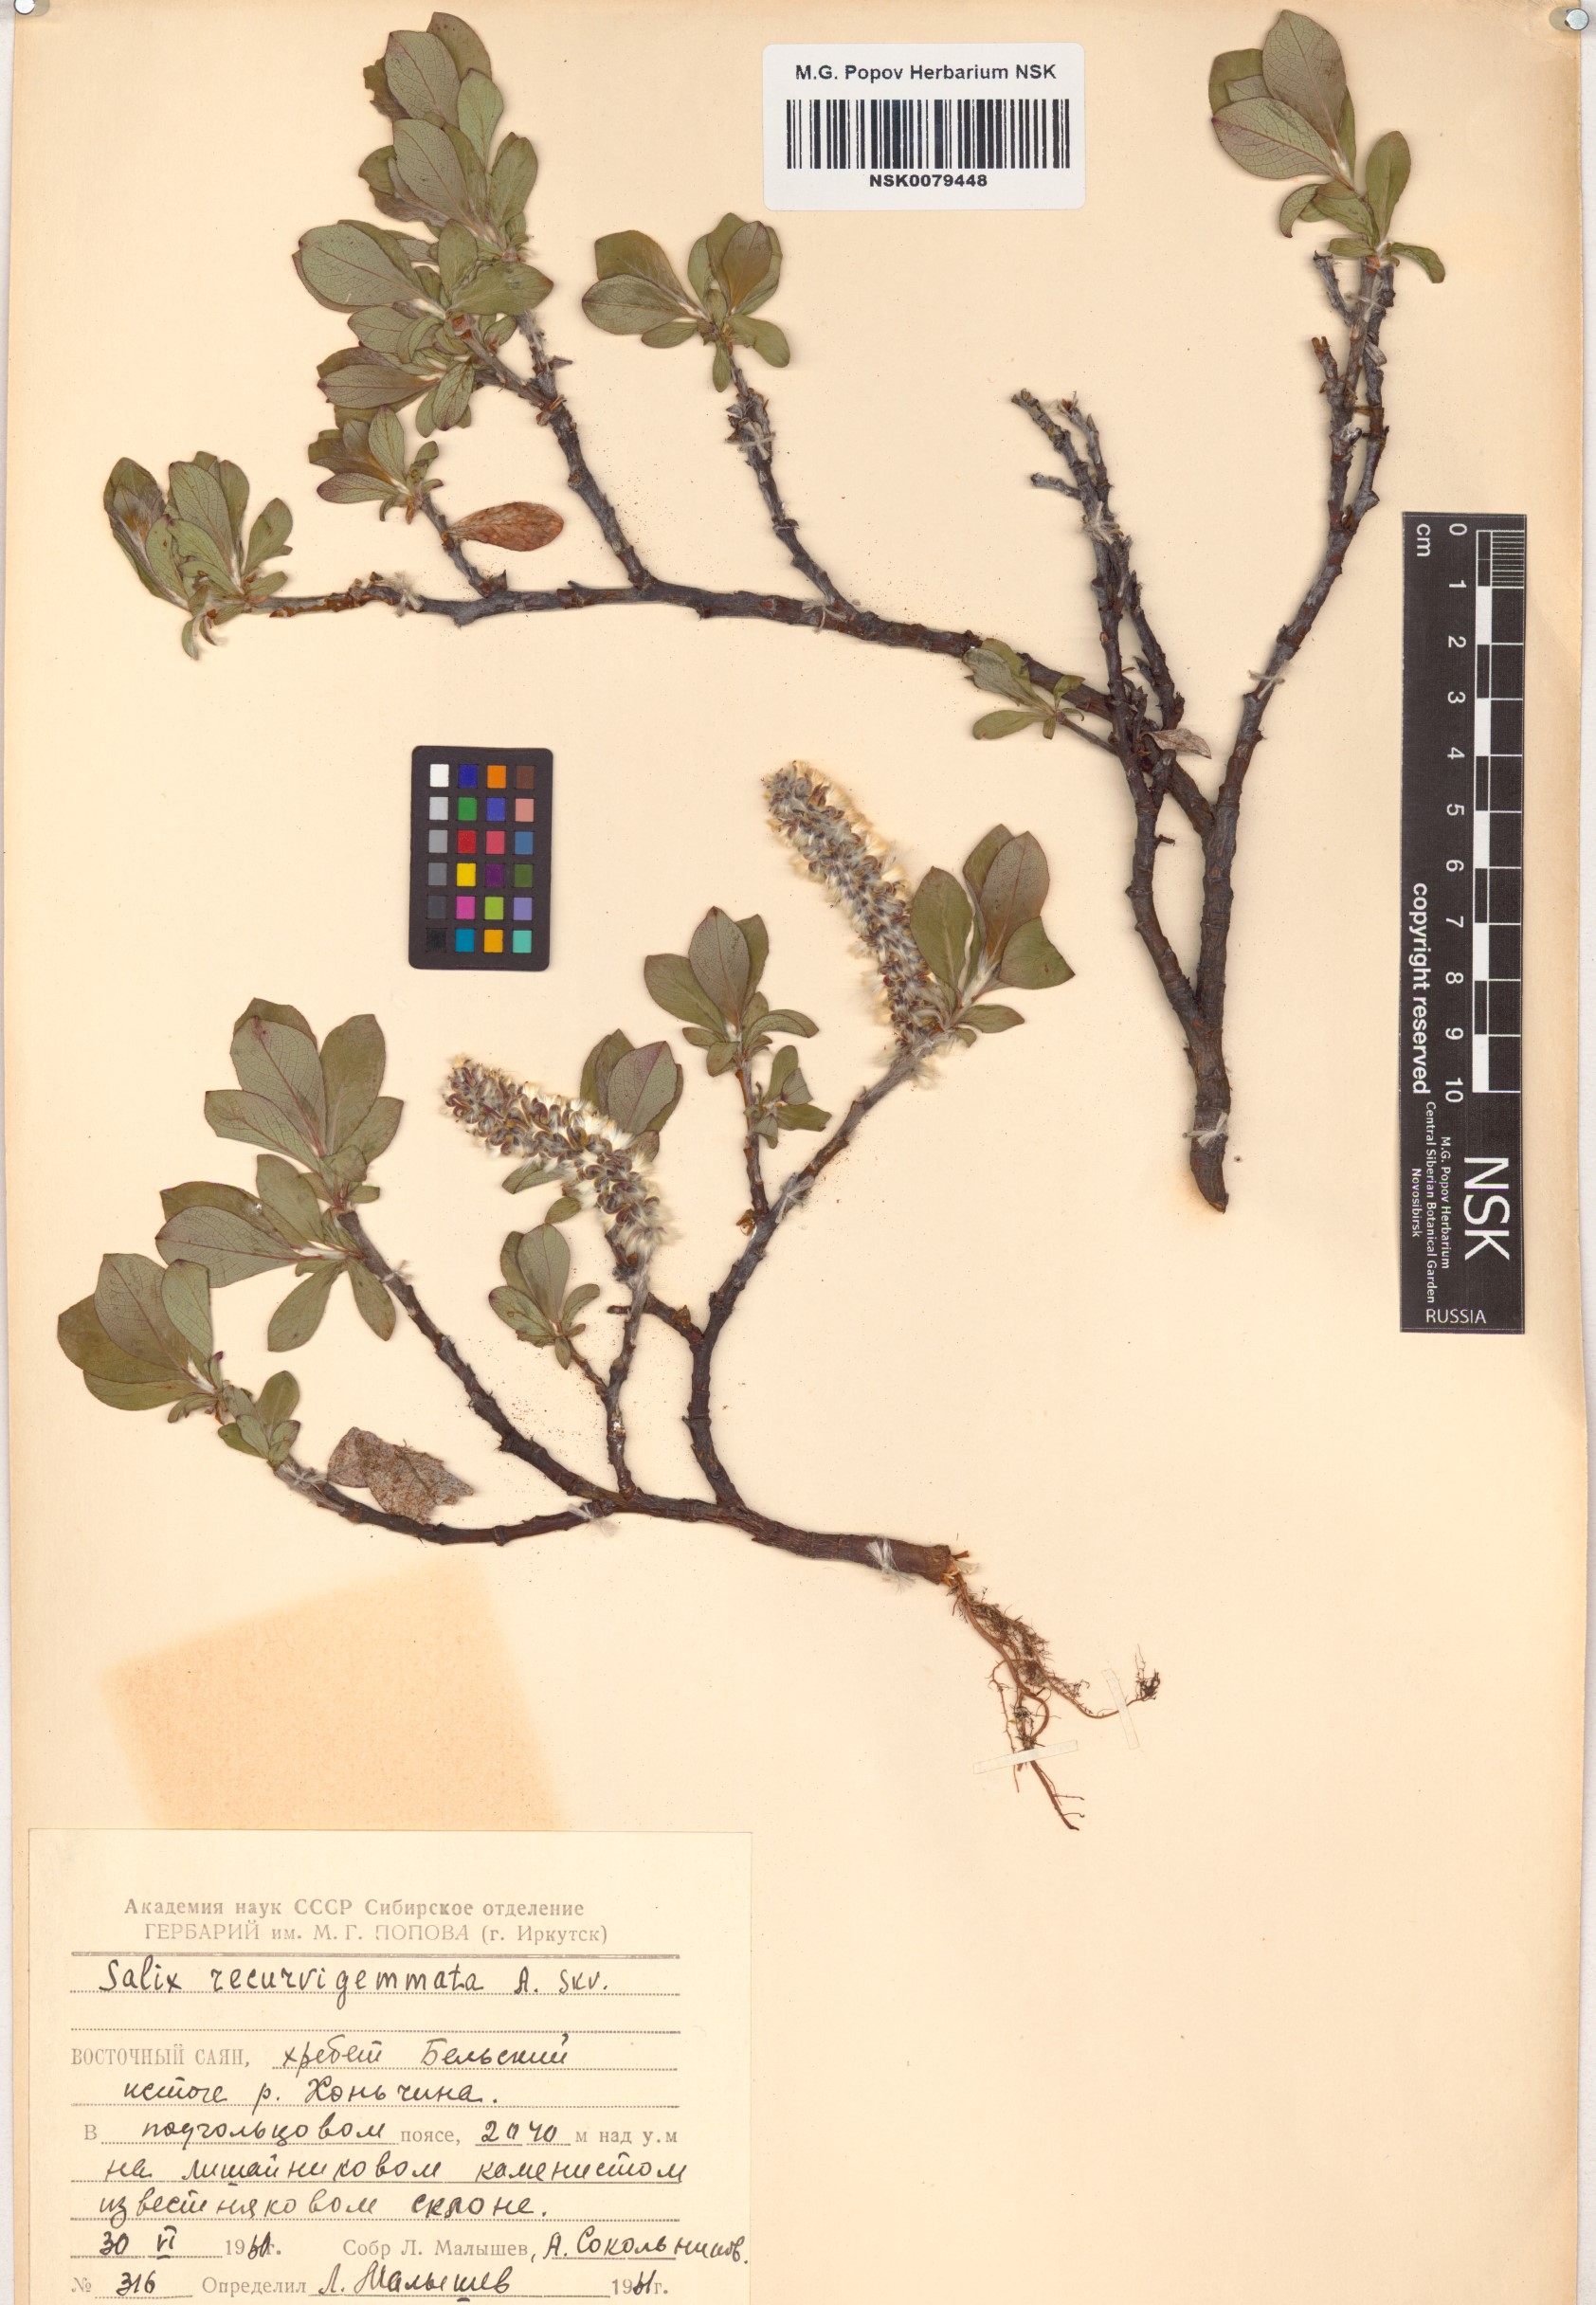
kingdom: Plantae
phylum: Tracheophyta
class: Magnoliopsida
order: Malpighiales
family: Salicaceae
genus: Salix
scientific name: Salix recurvigemmata
